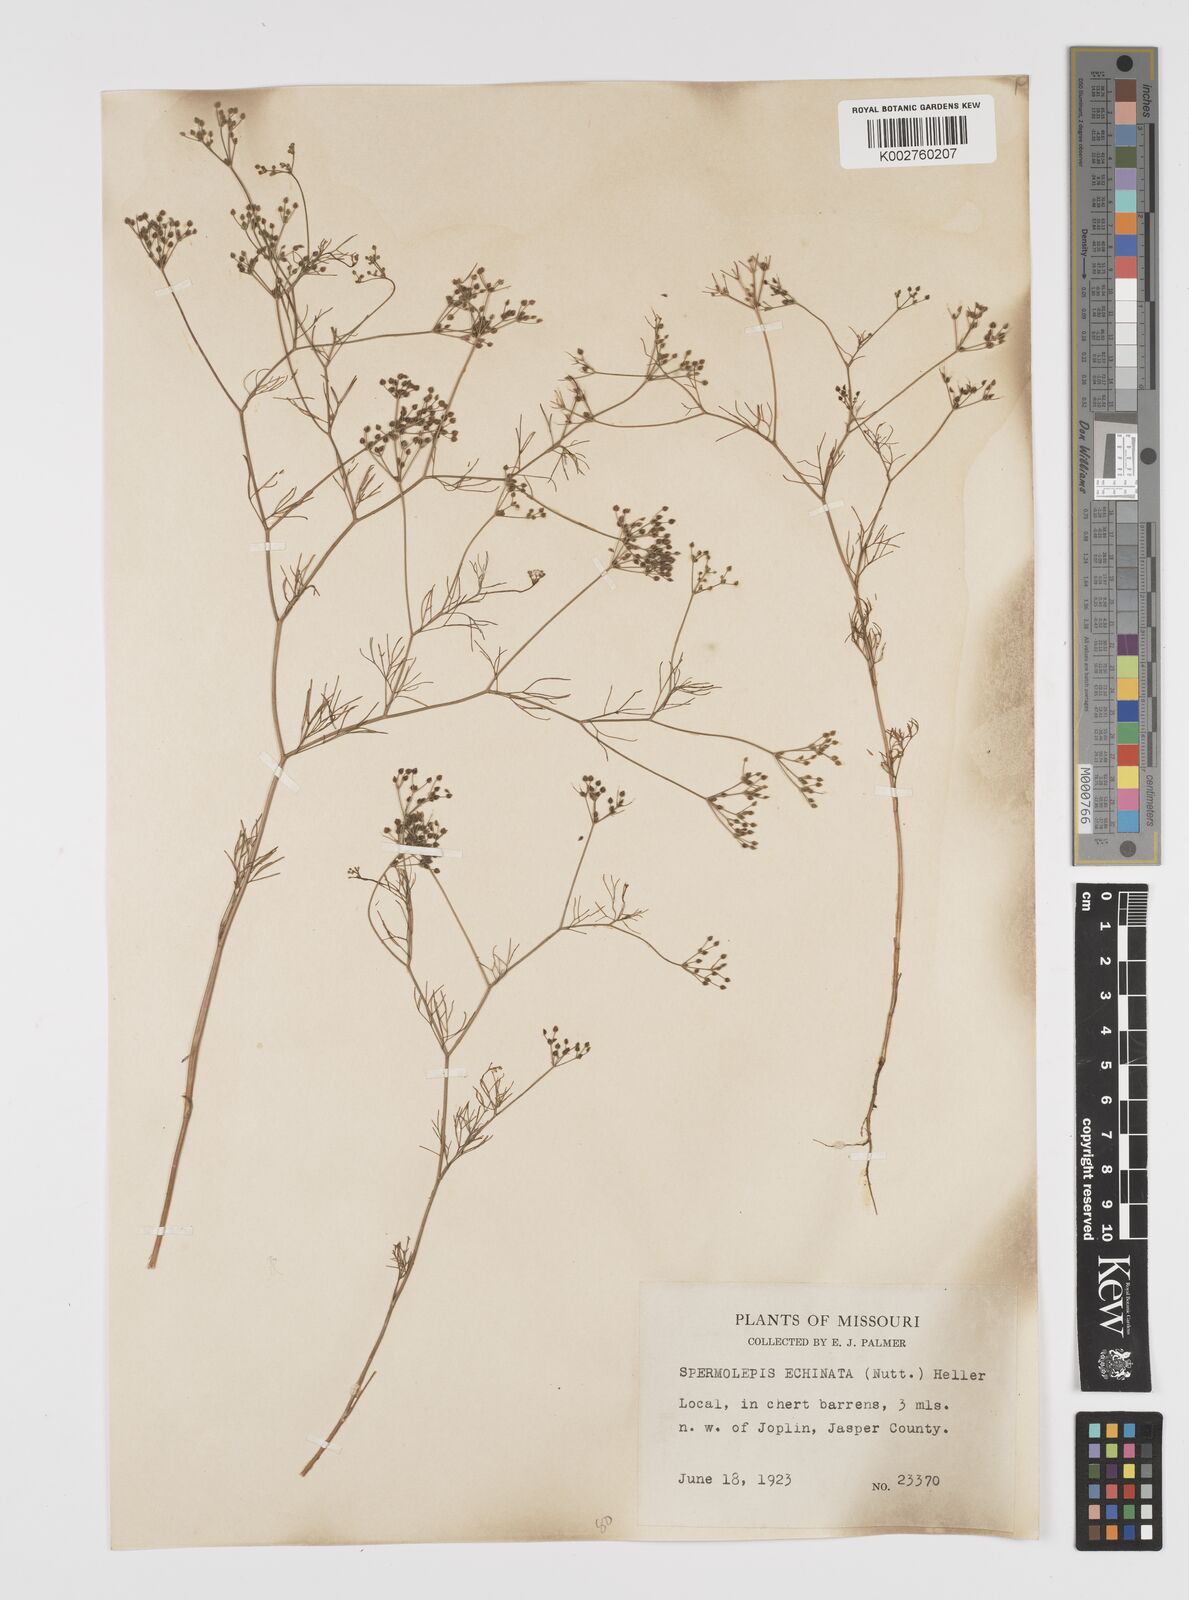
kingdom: Plantae
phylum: Tracheophyta
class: Magnoliopsida
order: Apiales
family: Apiaceae
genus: Spermolepis
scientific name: Spermolepis echinata
